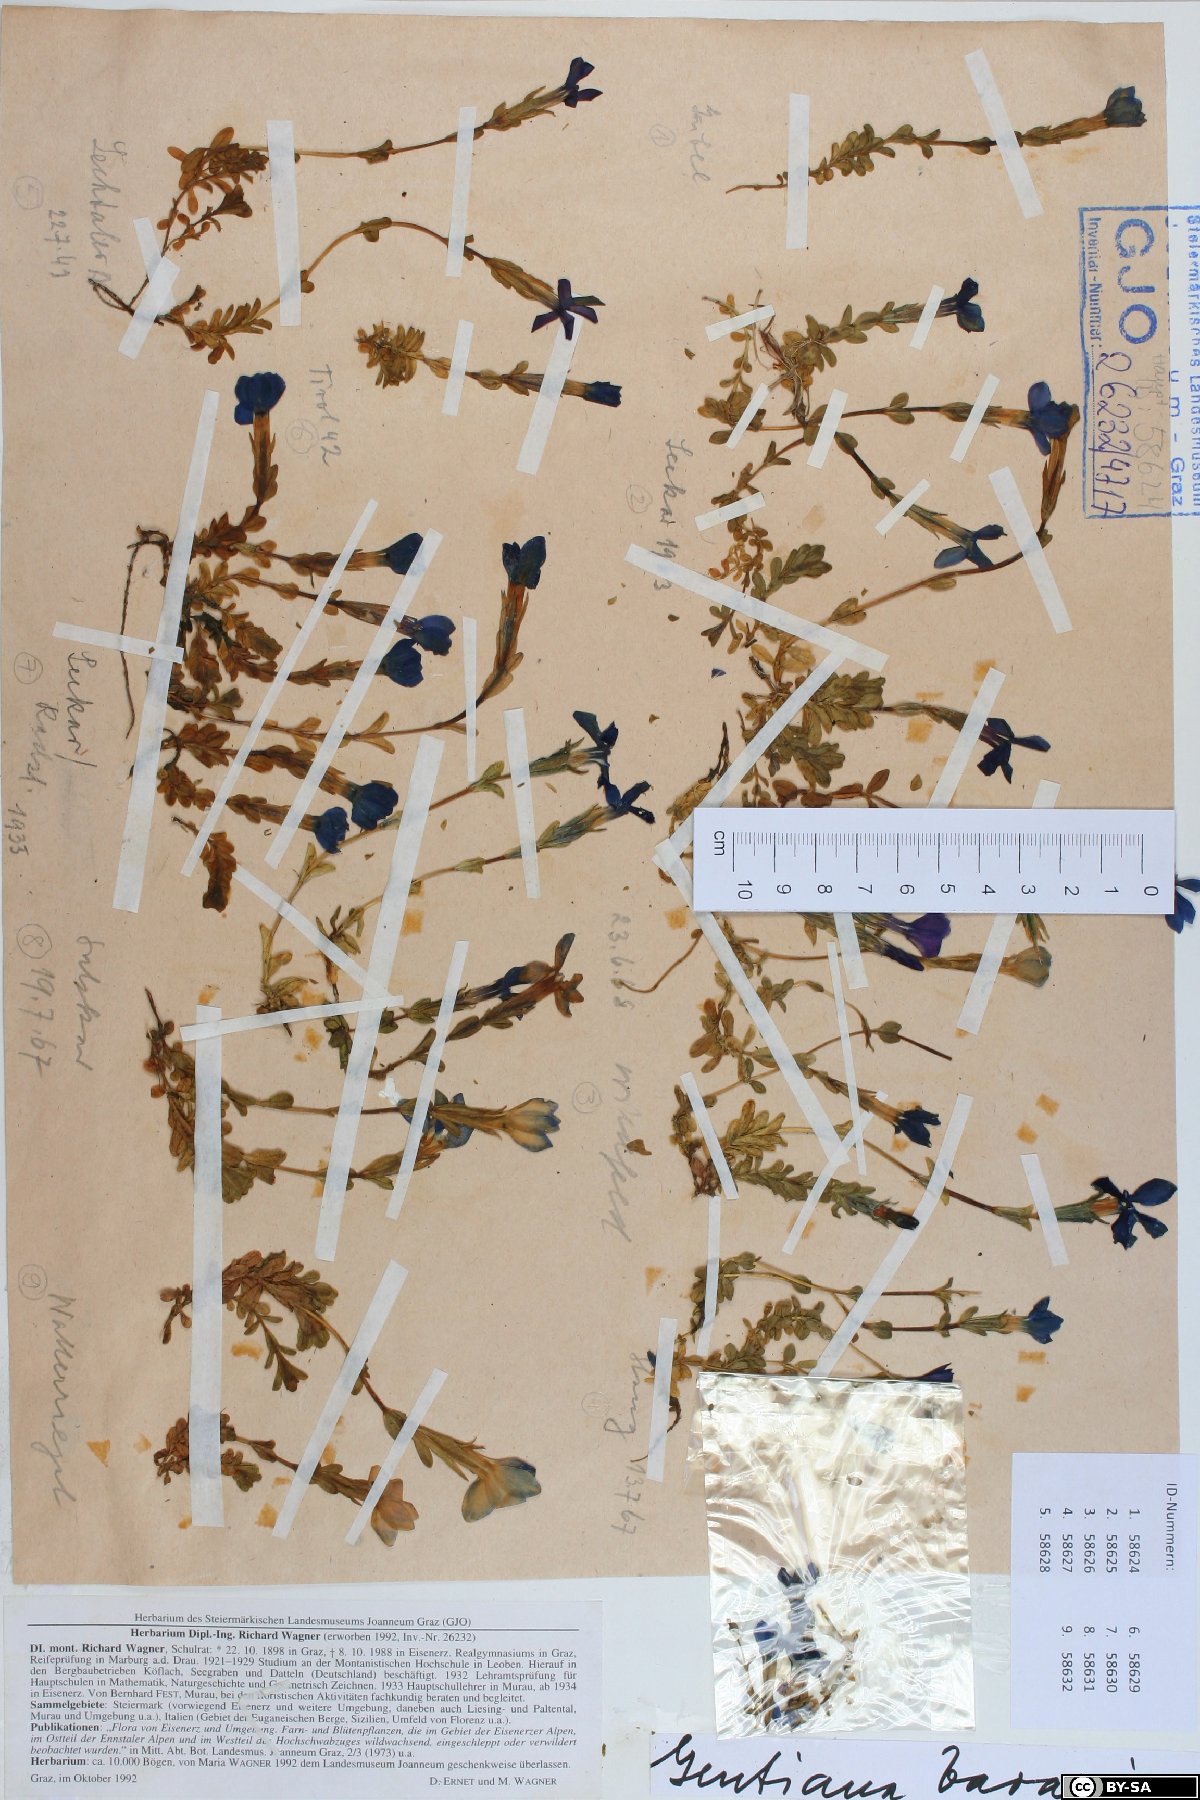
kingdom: Plantae
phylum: Tracheophyta
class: Magnoliopsida
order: Gentianales
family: Gentianaceae
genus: Gentiana
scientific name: Gentiana bavarica
